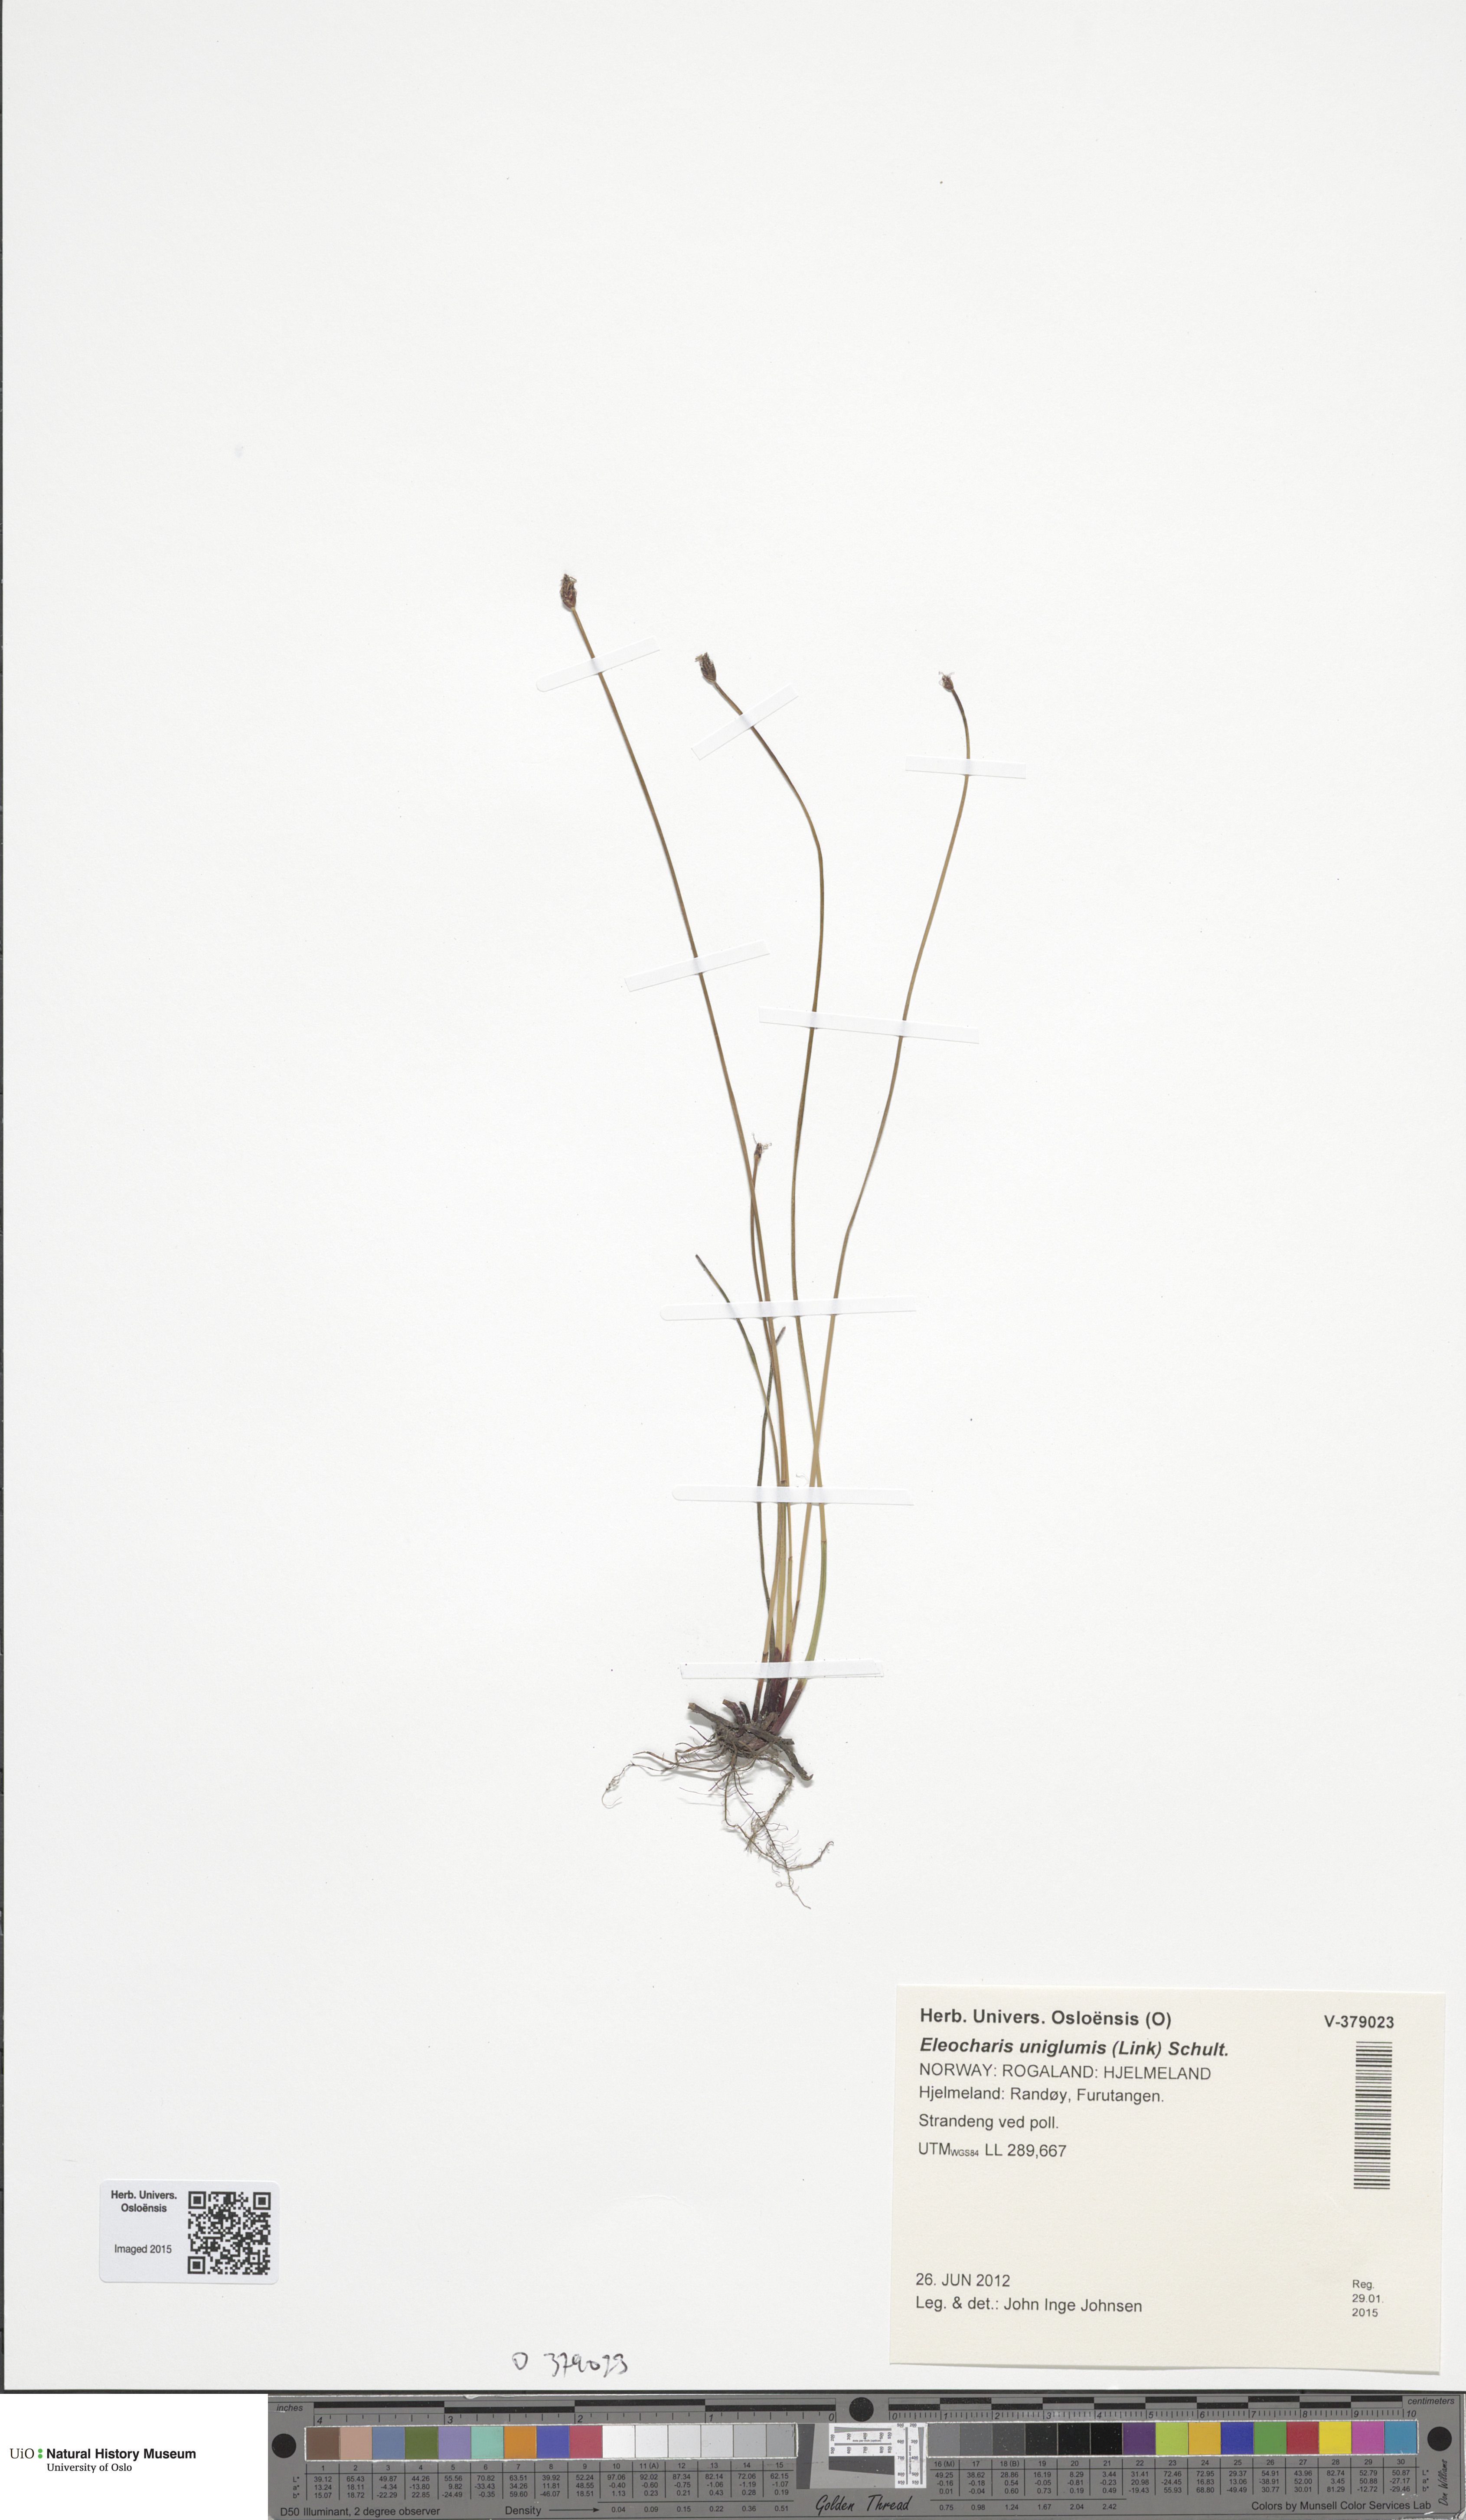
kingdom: Plantae
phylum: Tracheophyta
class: Liliopsida
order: Poales
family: Cyperaceae
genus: Eleocharis
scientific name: Eleocharis uniglumis
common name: Slender spike-rush
